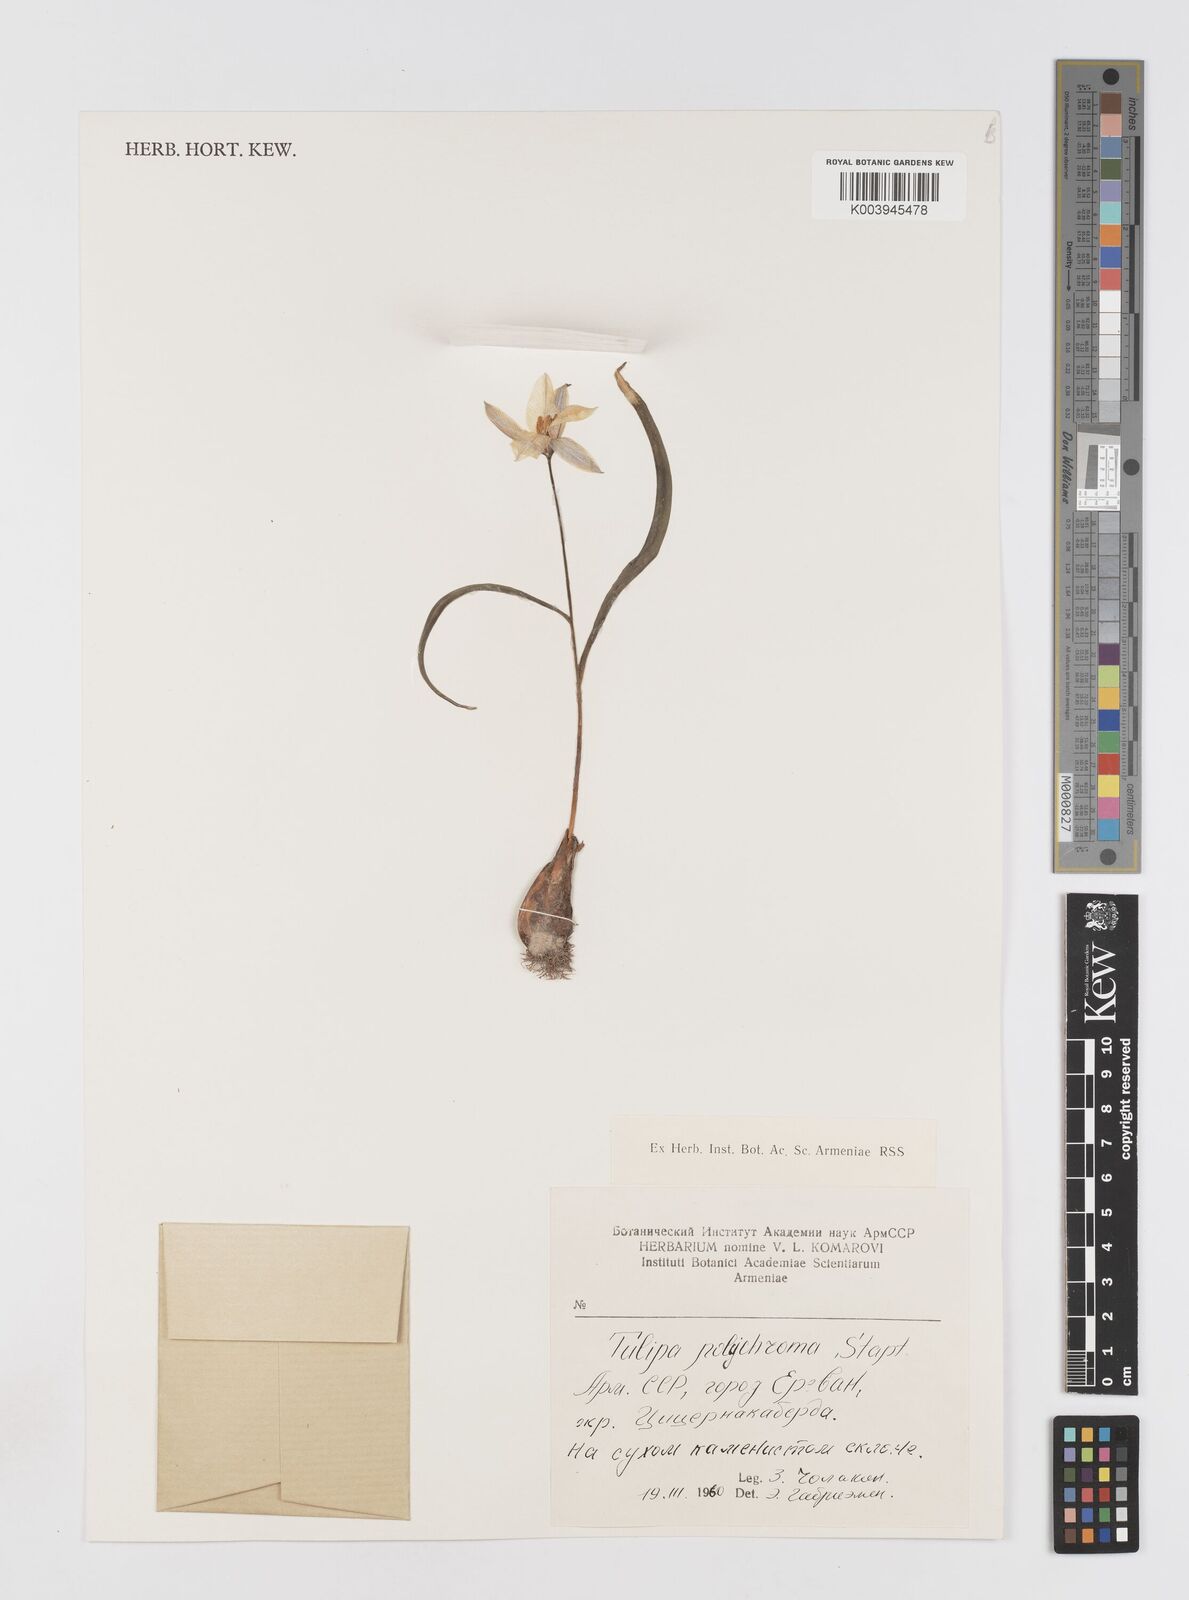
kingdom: Plantae
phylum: Tracheophyta
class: Liliopsida
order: Liliales
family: Liliaceae
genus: Tulipa
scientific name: Tulipa biflora
